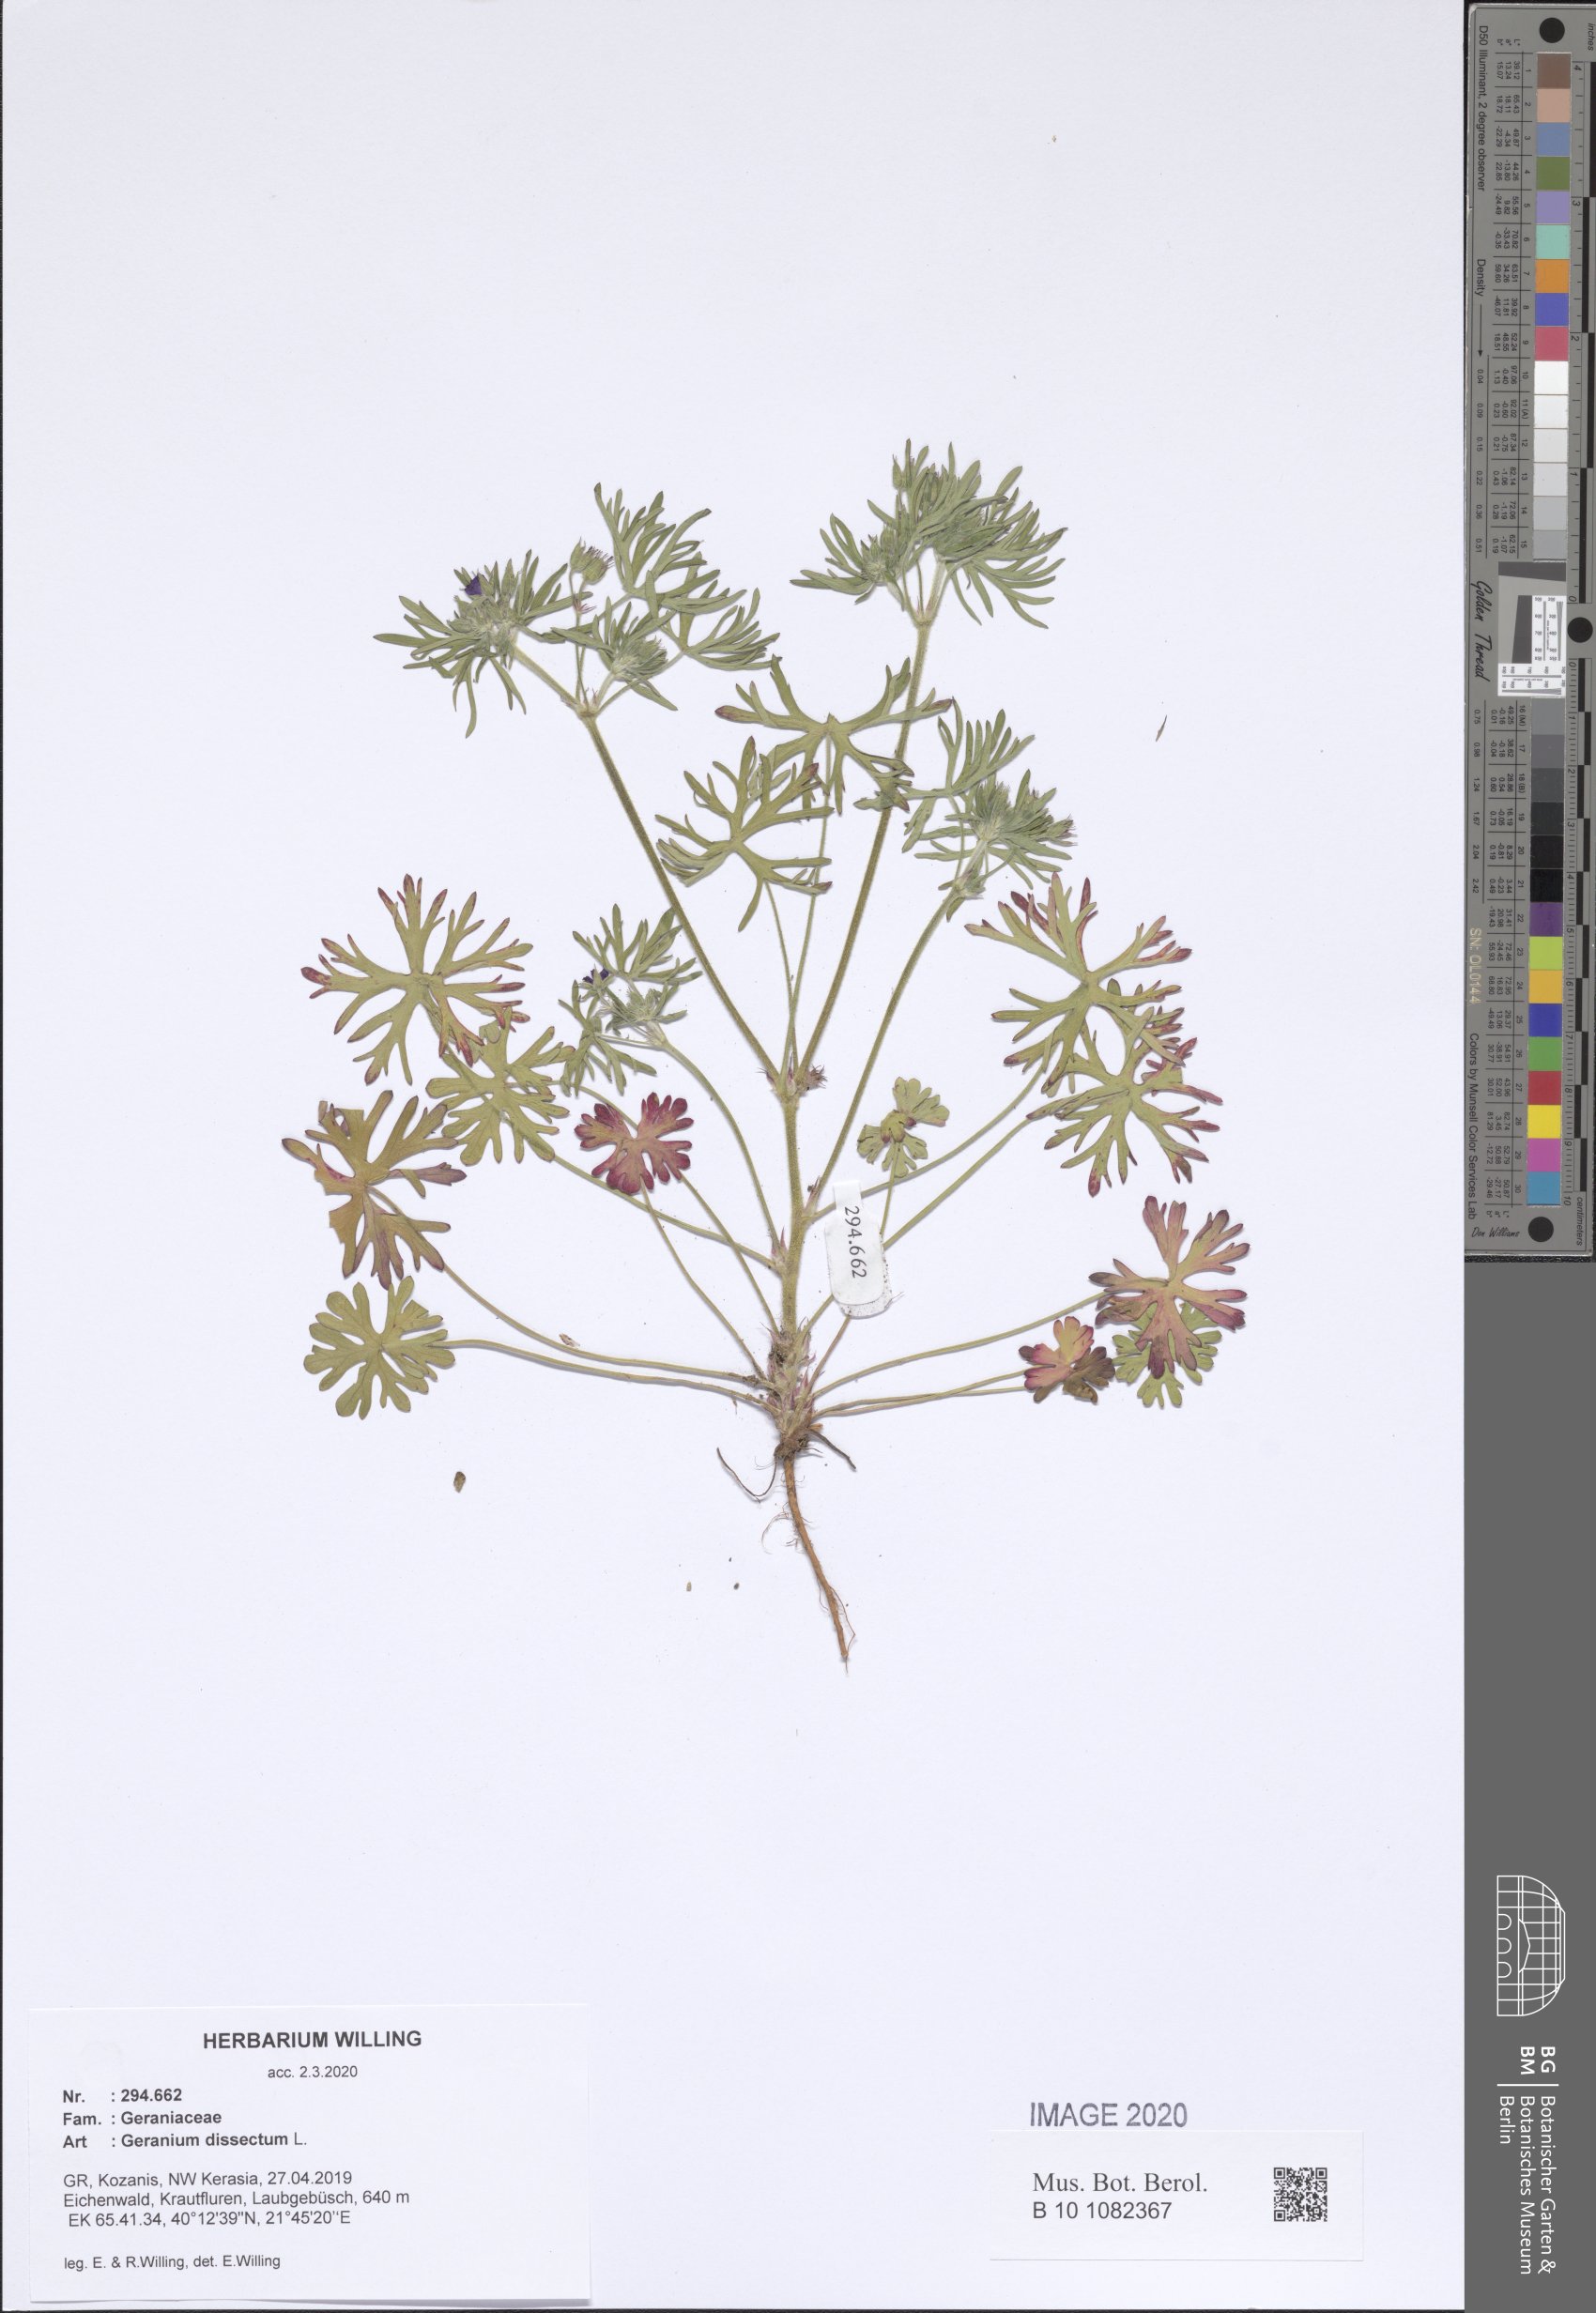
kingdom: Plantae
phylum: Tracheophyta
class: Magnoliopsida
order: Geraniales
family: Geraniaceae
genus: Geranium
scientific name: Geranium dissectum
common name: Cut-leaved crane's-bill
